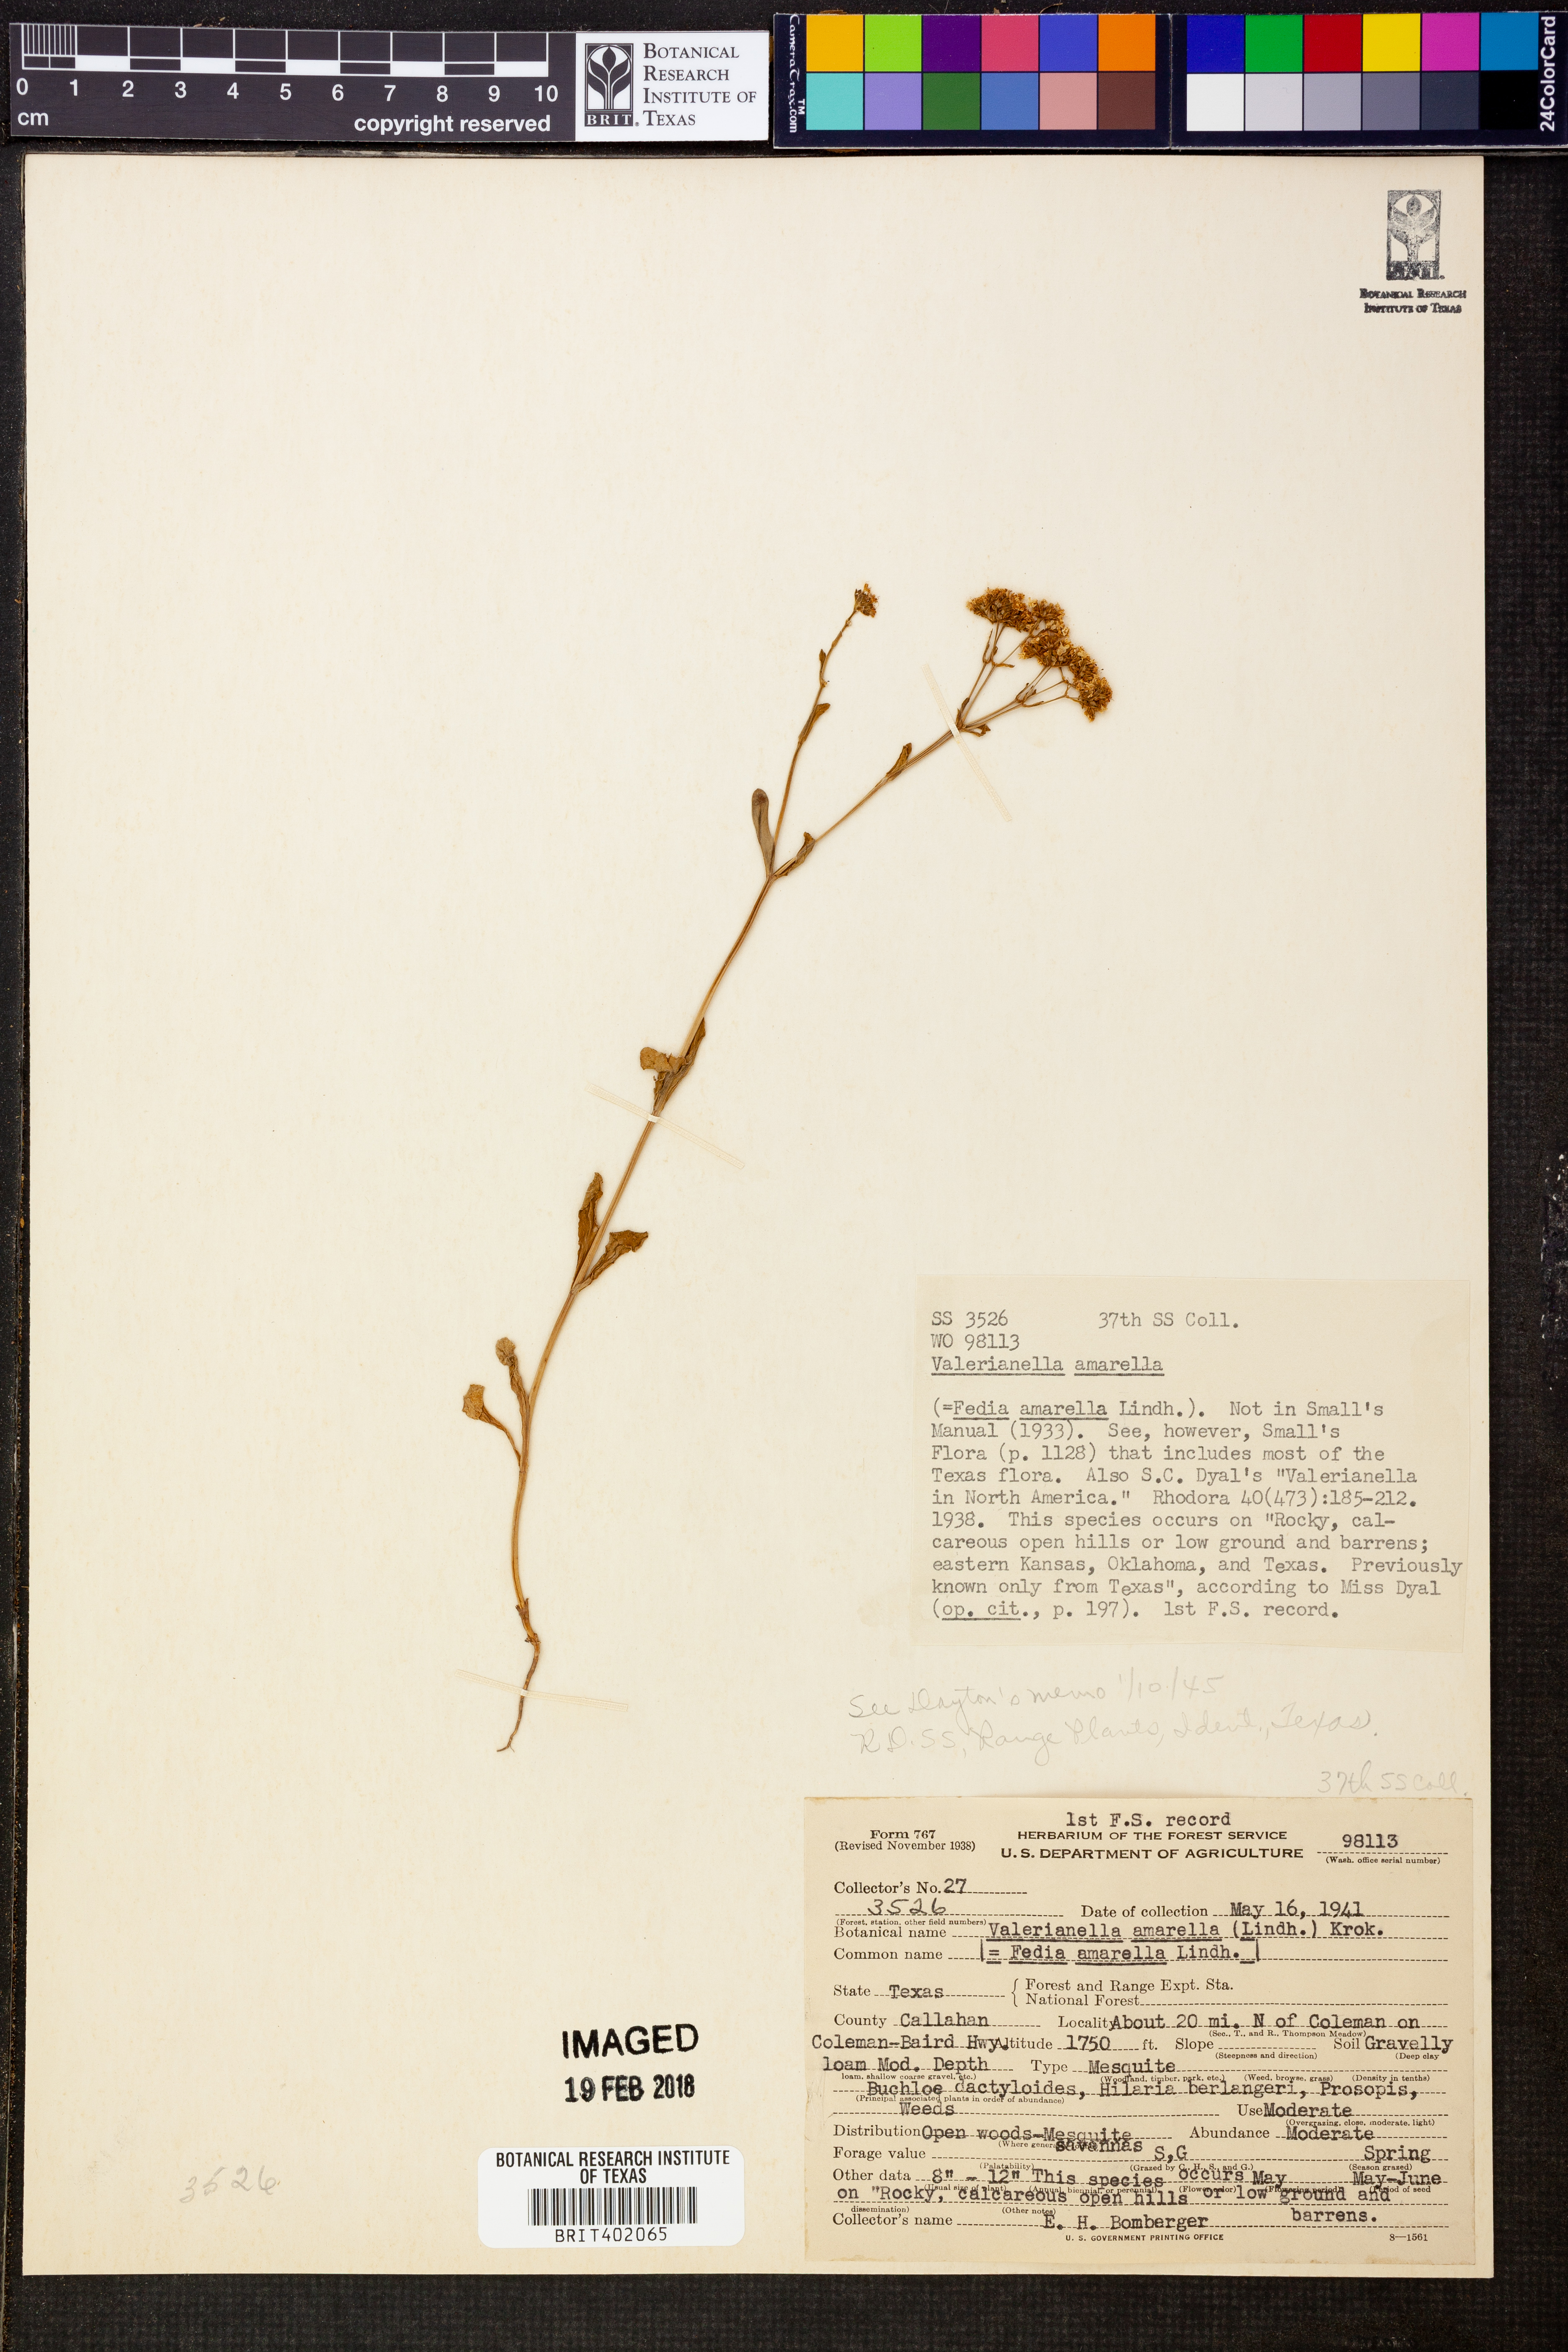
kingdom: Plantae
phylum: Tracheophyta
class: Magnoliopsida
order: Dipsacales
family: Caprifoliaceae
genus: Valerianella
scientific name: Valerianella amarella
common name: Hariy cornsalad
